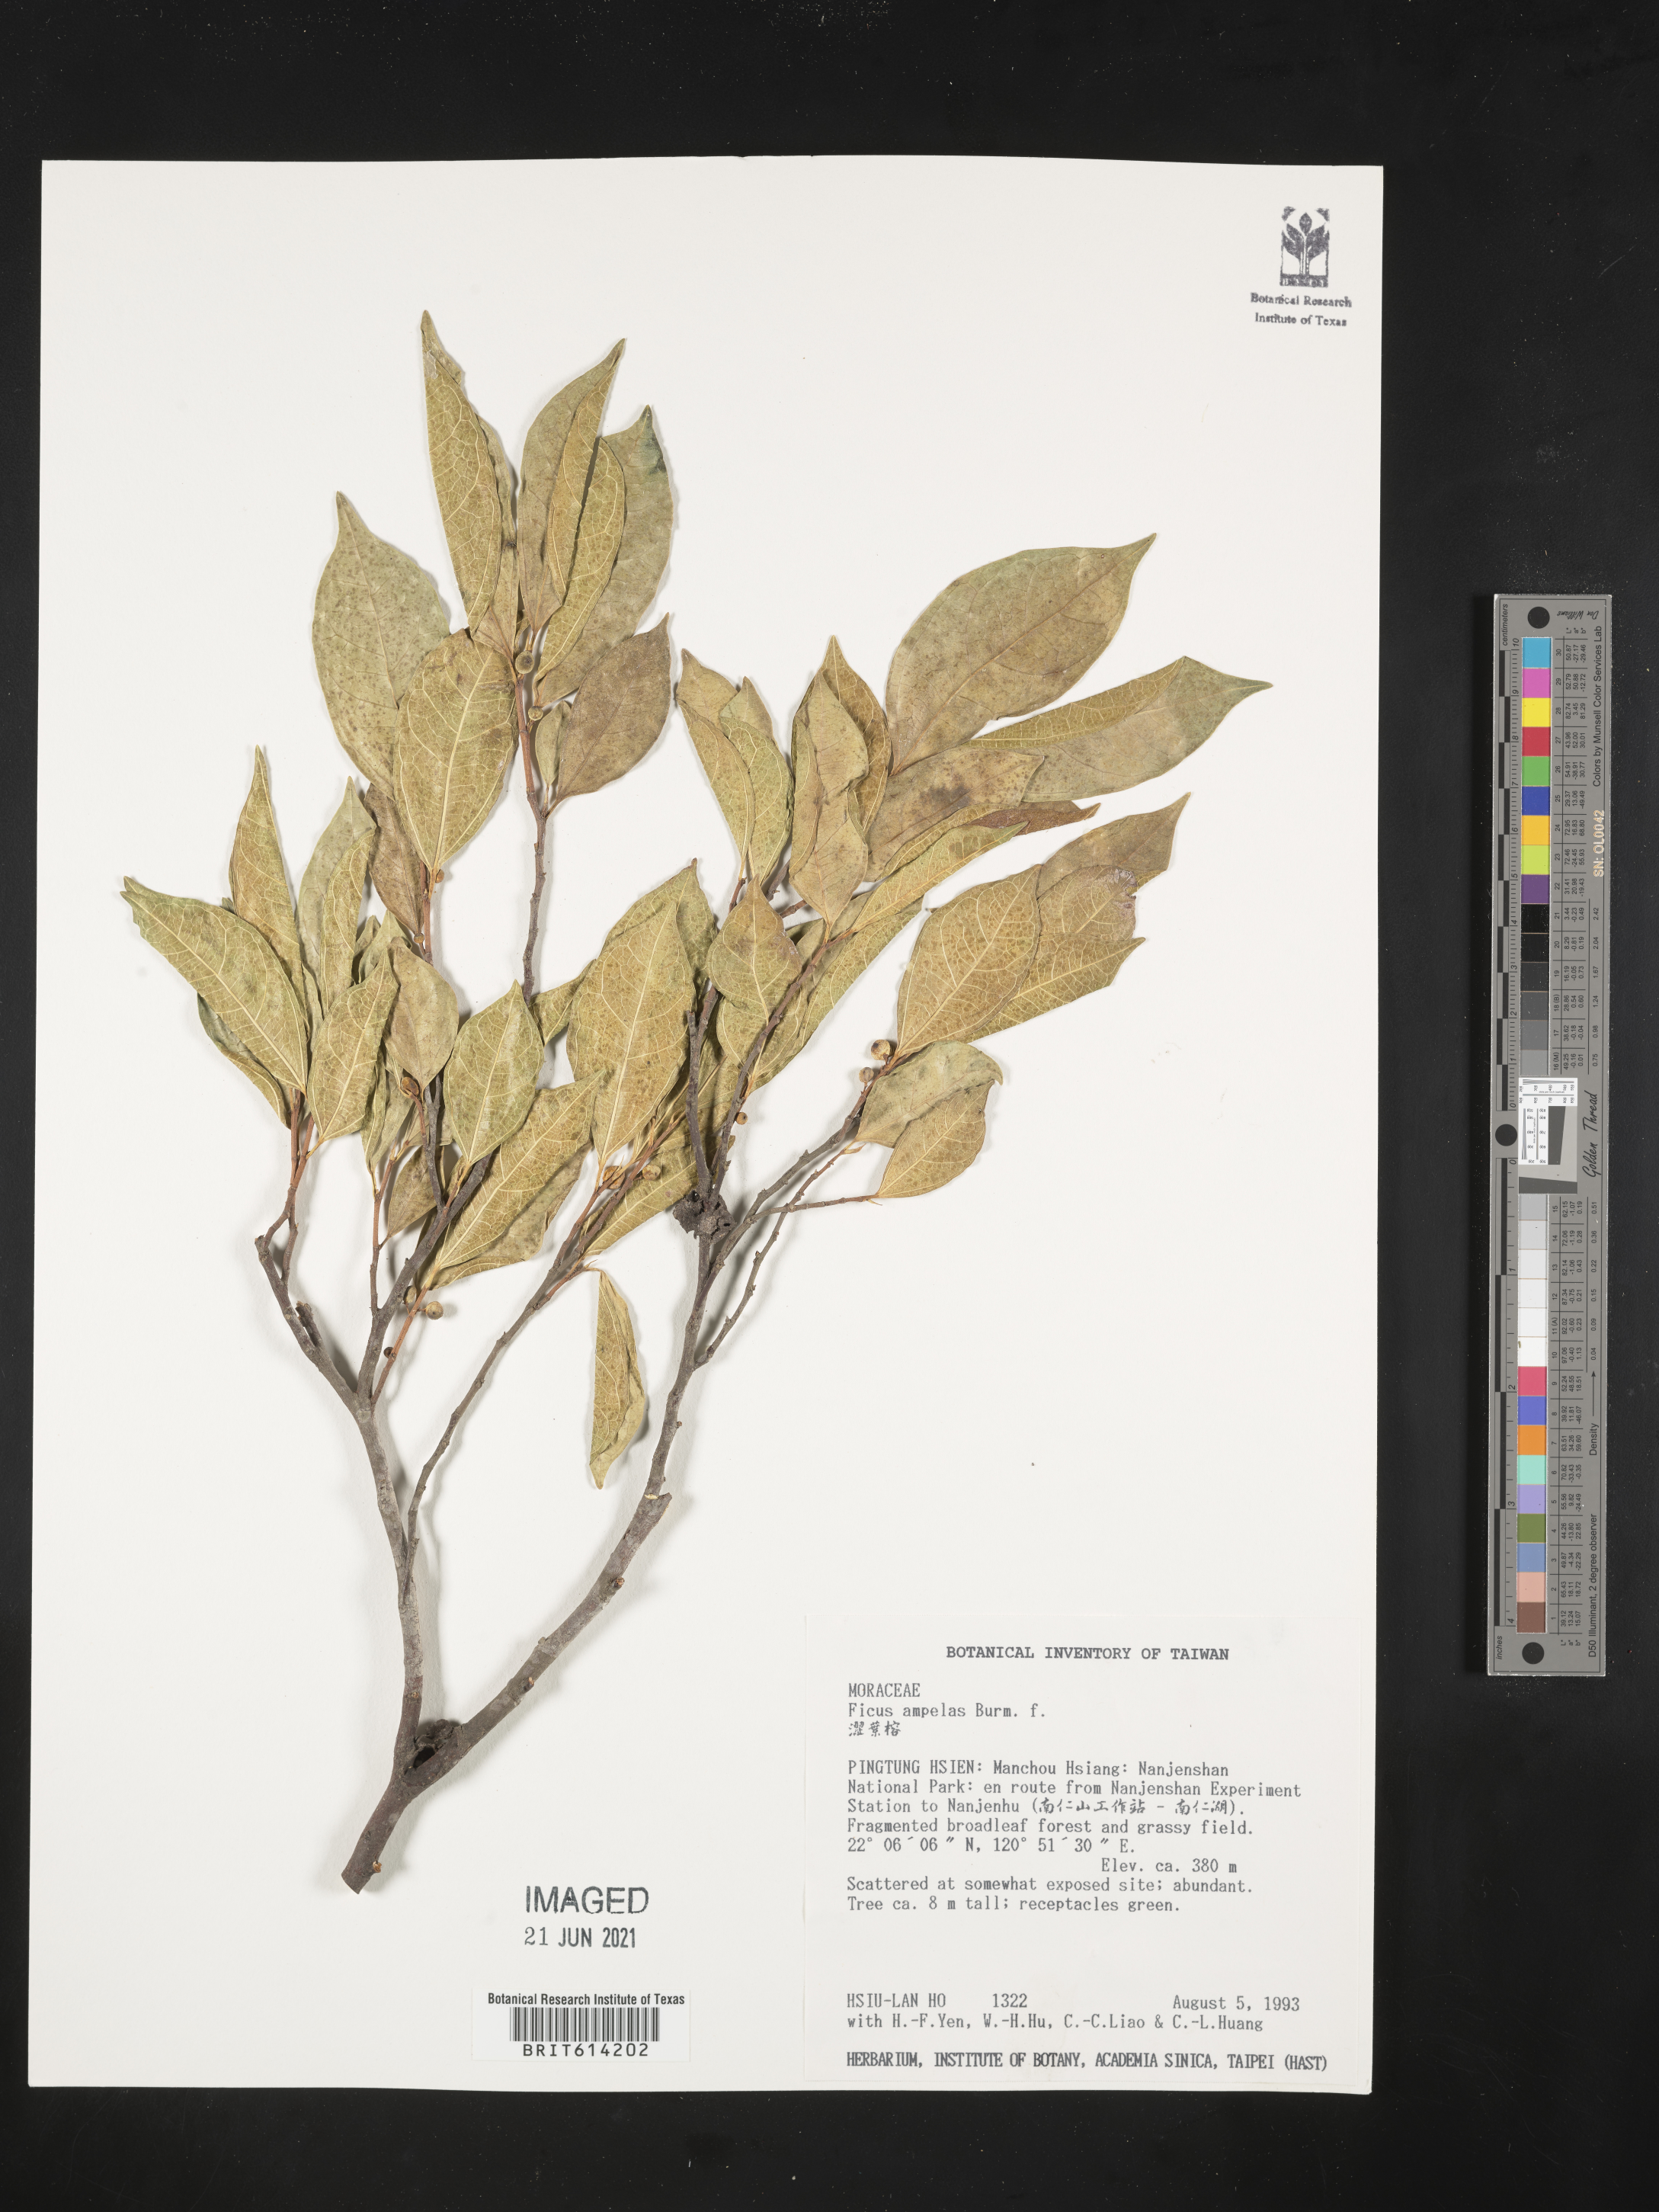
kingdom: Plantae
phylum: Tracheophyta
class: Magnoliopsida
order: Rosales
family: Moraceae
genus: Ficus
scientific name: Ficus ampelas
